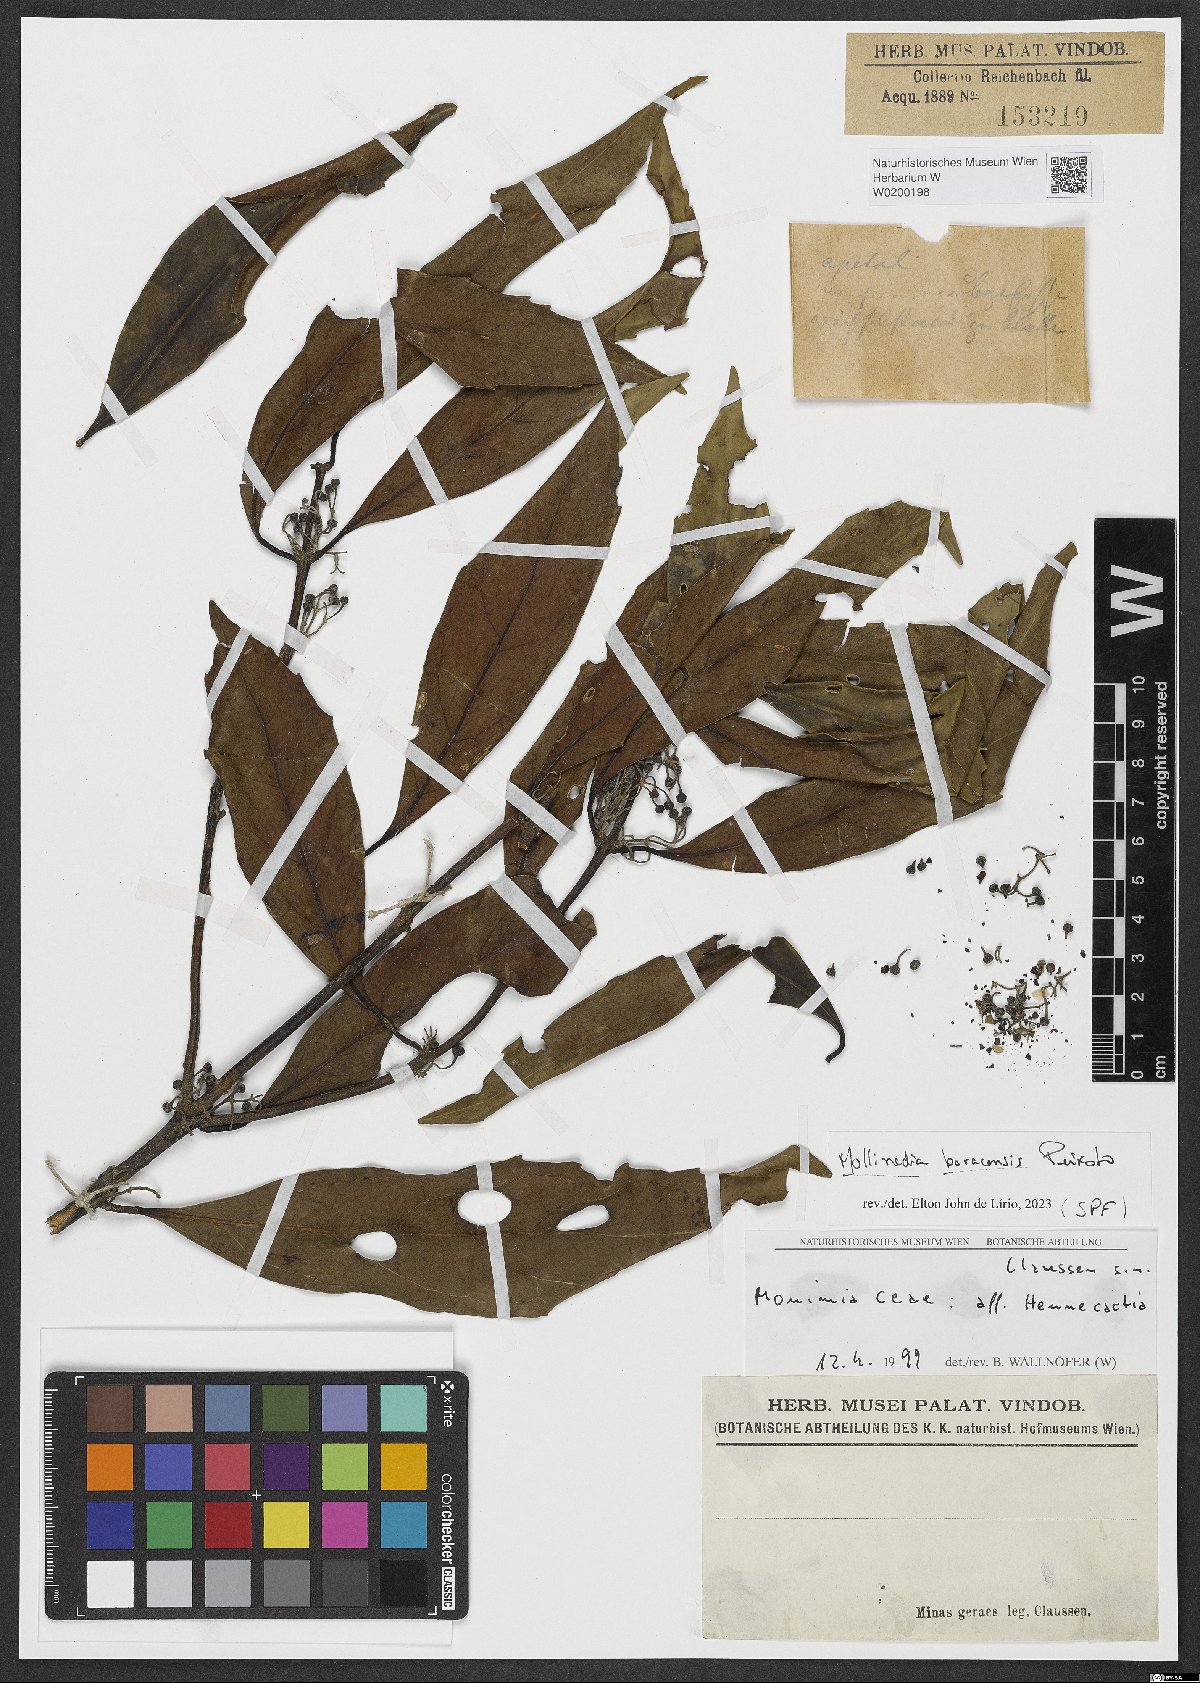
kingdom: Plantae
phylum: Tracheophyta
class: Magnoliopsida
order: Laurales
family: Monimiaceae
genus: Mollinedia
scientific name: Mollinedia boracensis
